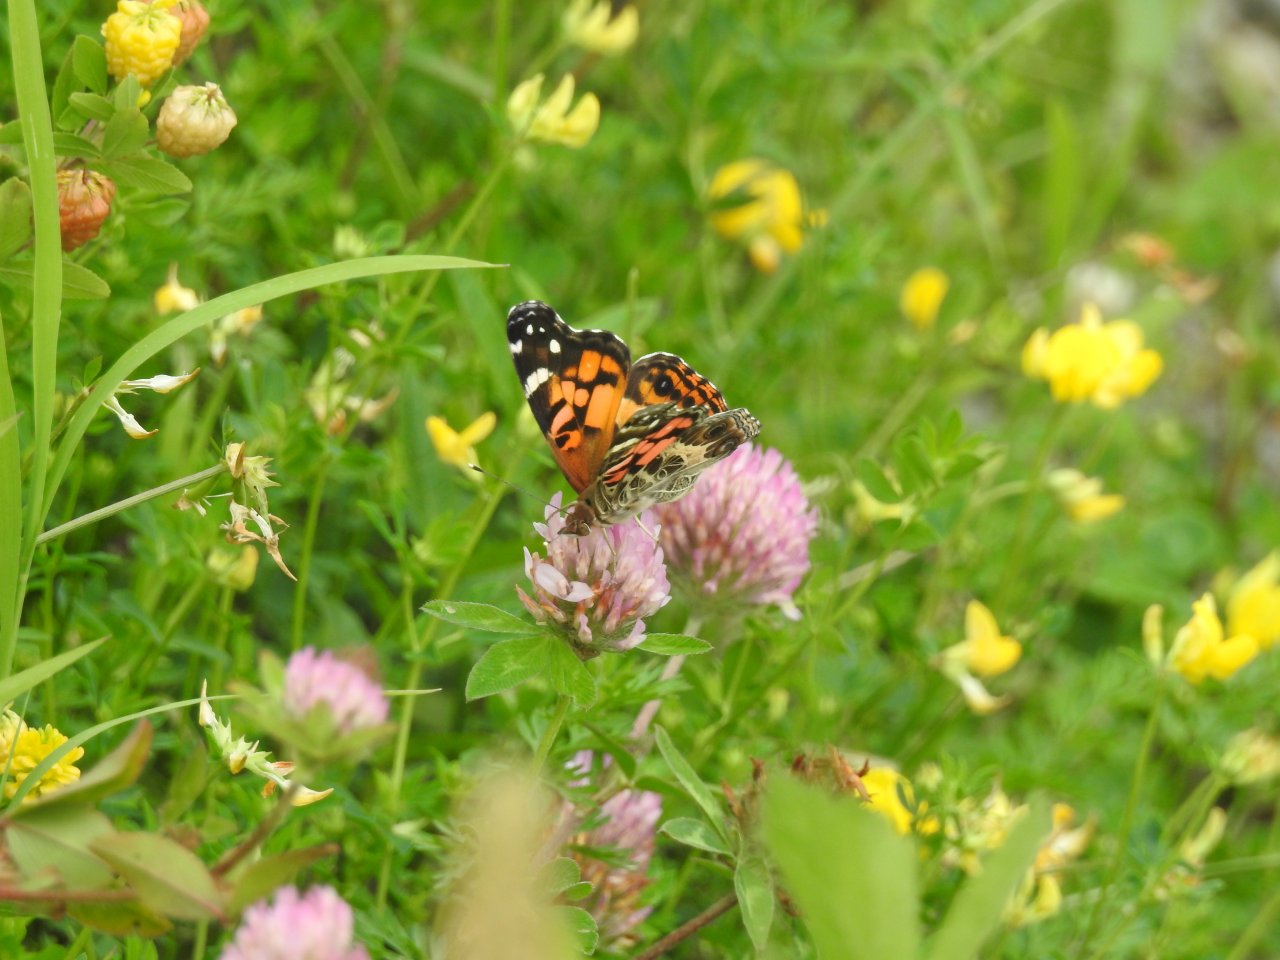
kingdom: Animalia
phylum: Arthropoda
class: Insecta
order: Lepidoptera
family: Nymphalidae
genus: Vanessa
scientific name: Vanessa virginiensis
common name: American Lady
